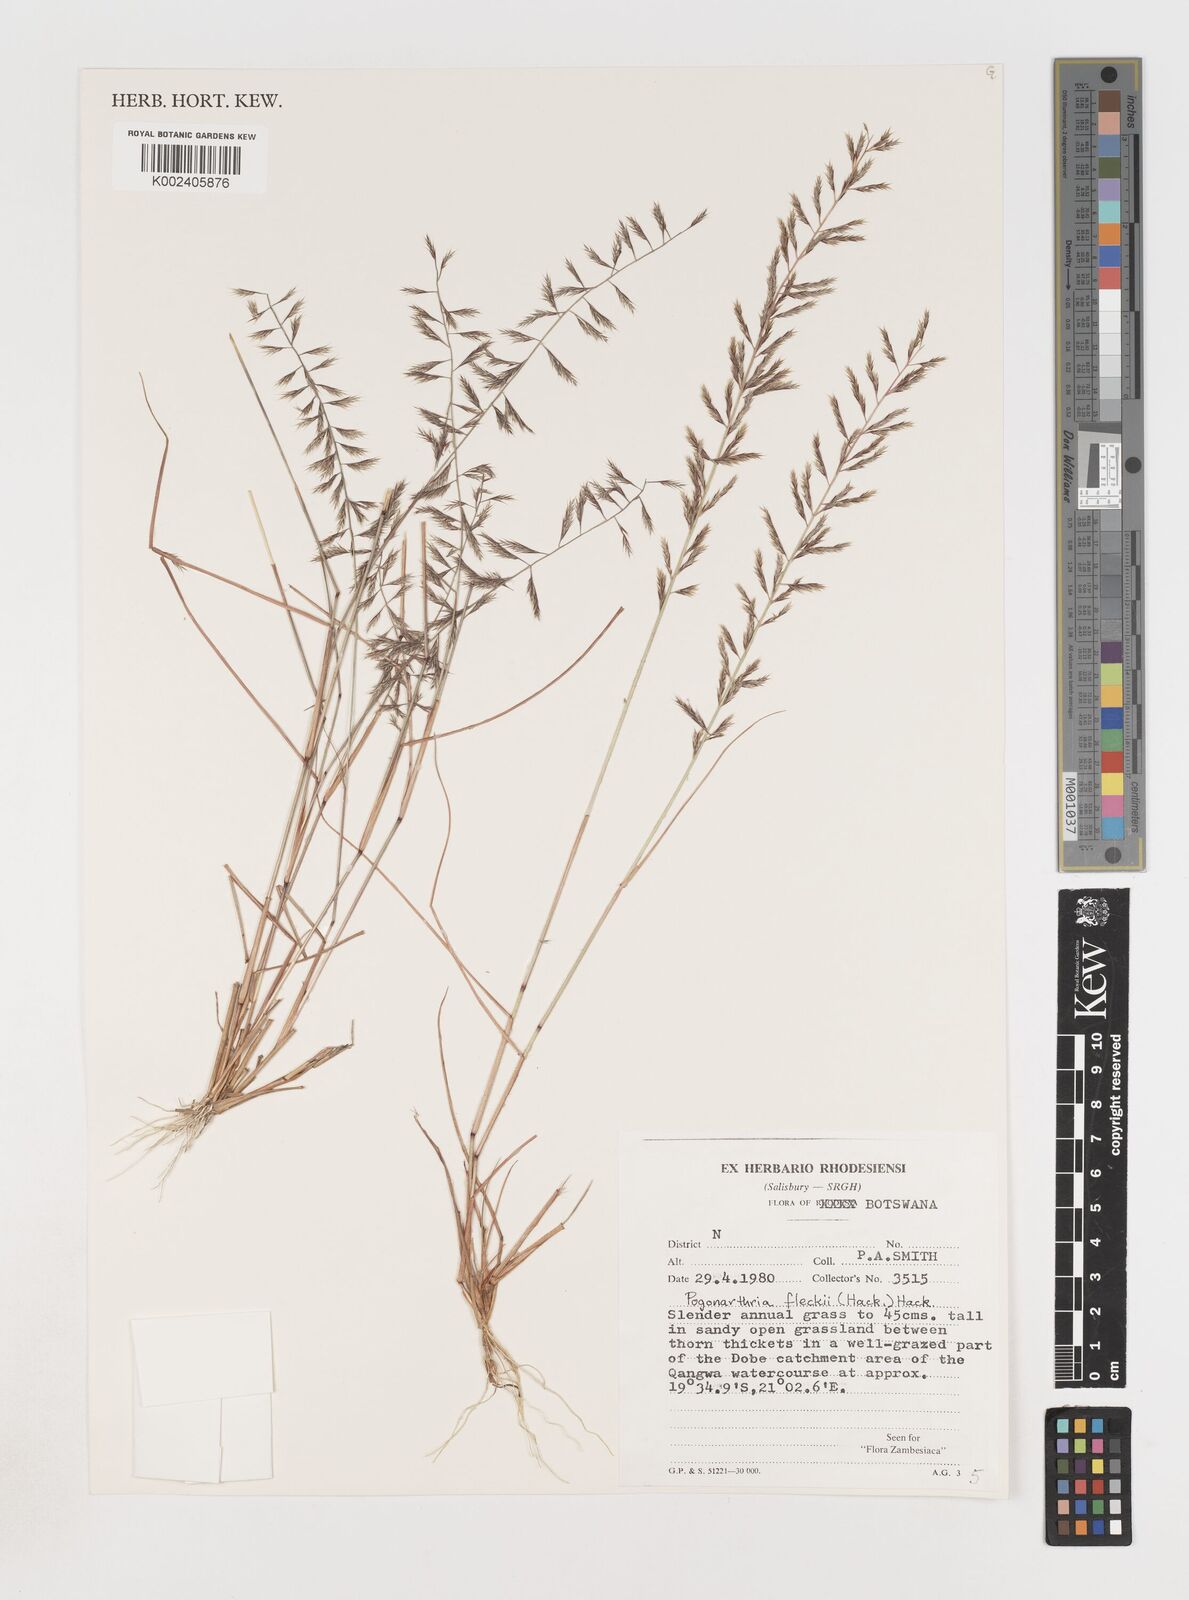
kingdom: Plantae
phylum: Tracheophyta
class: Liliopsida
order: Poales
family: Poaceae
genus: Pogonarthria
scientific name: Pogonarthria fleckii
